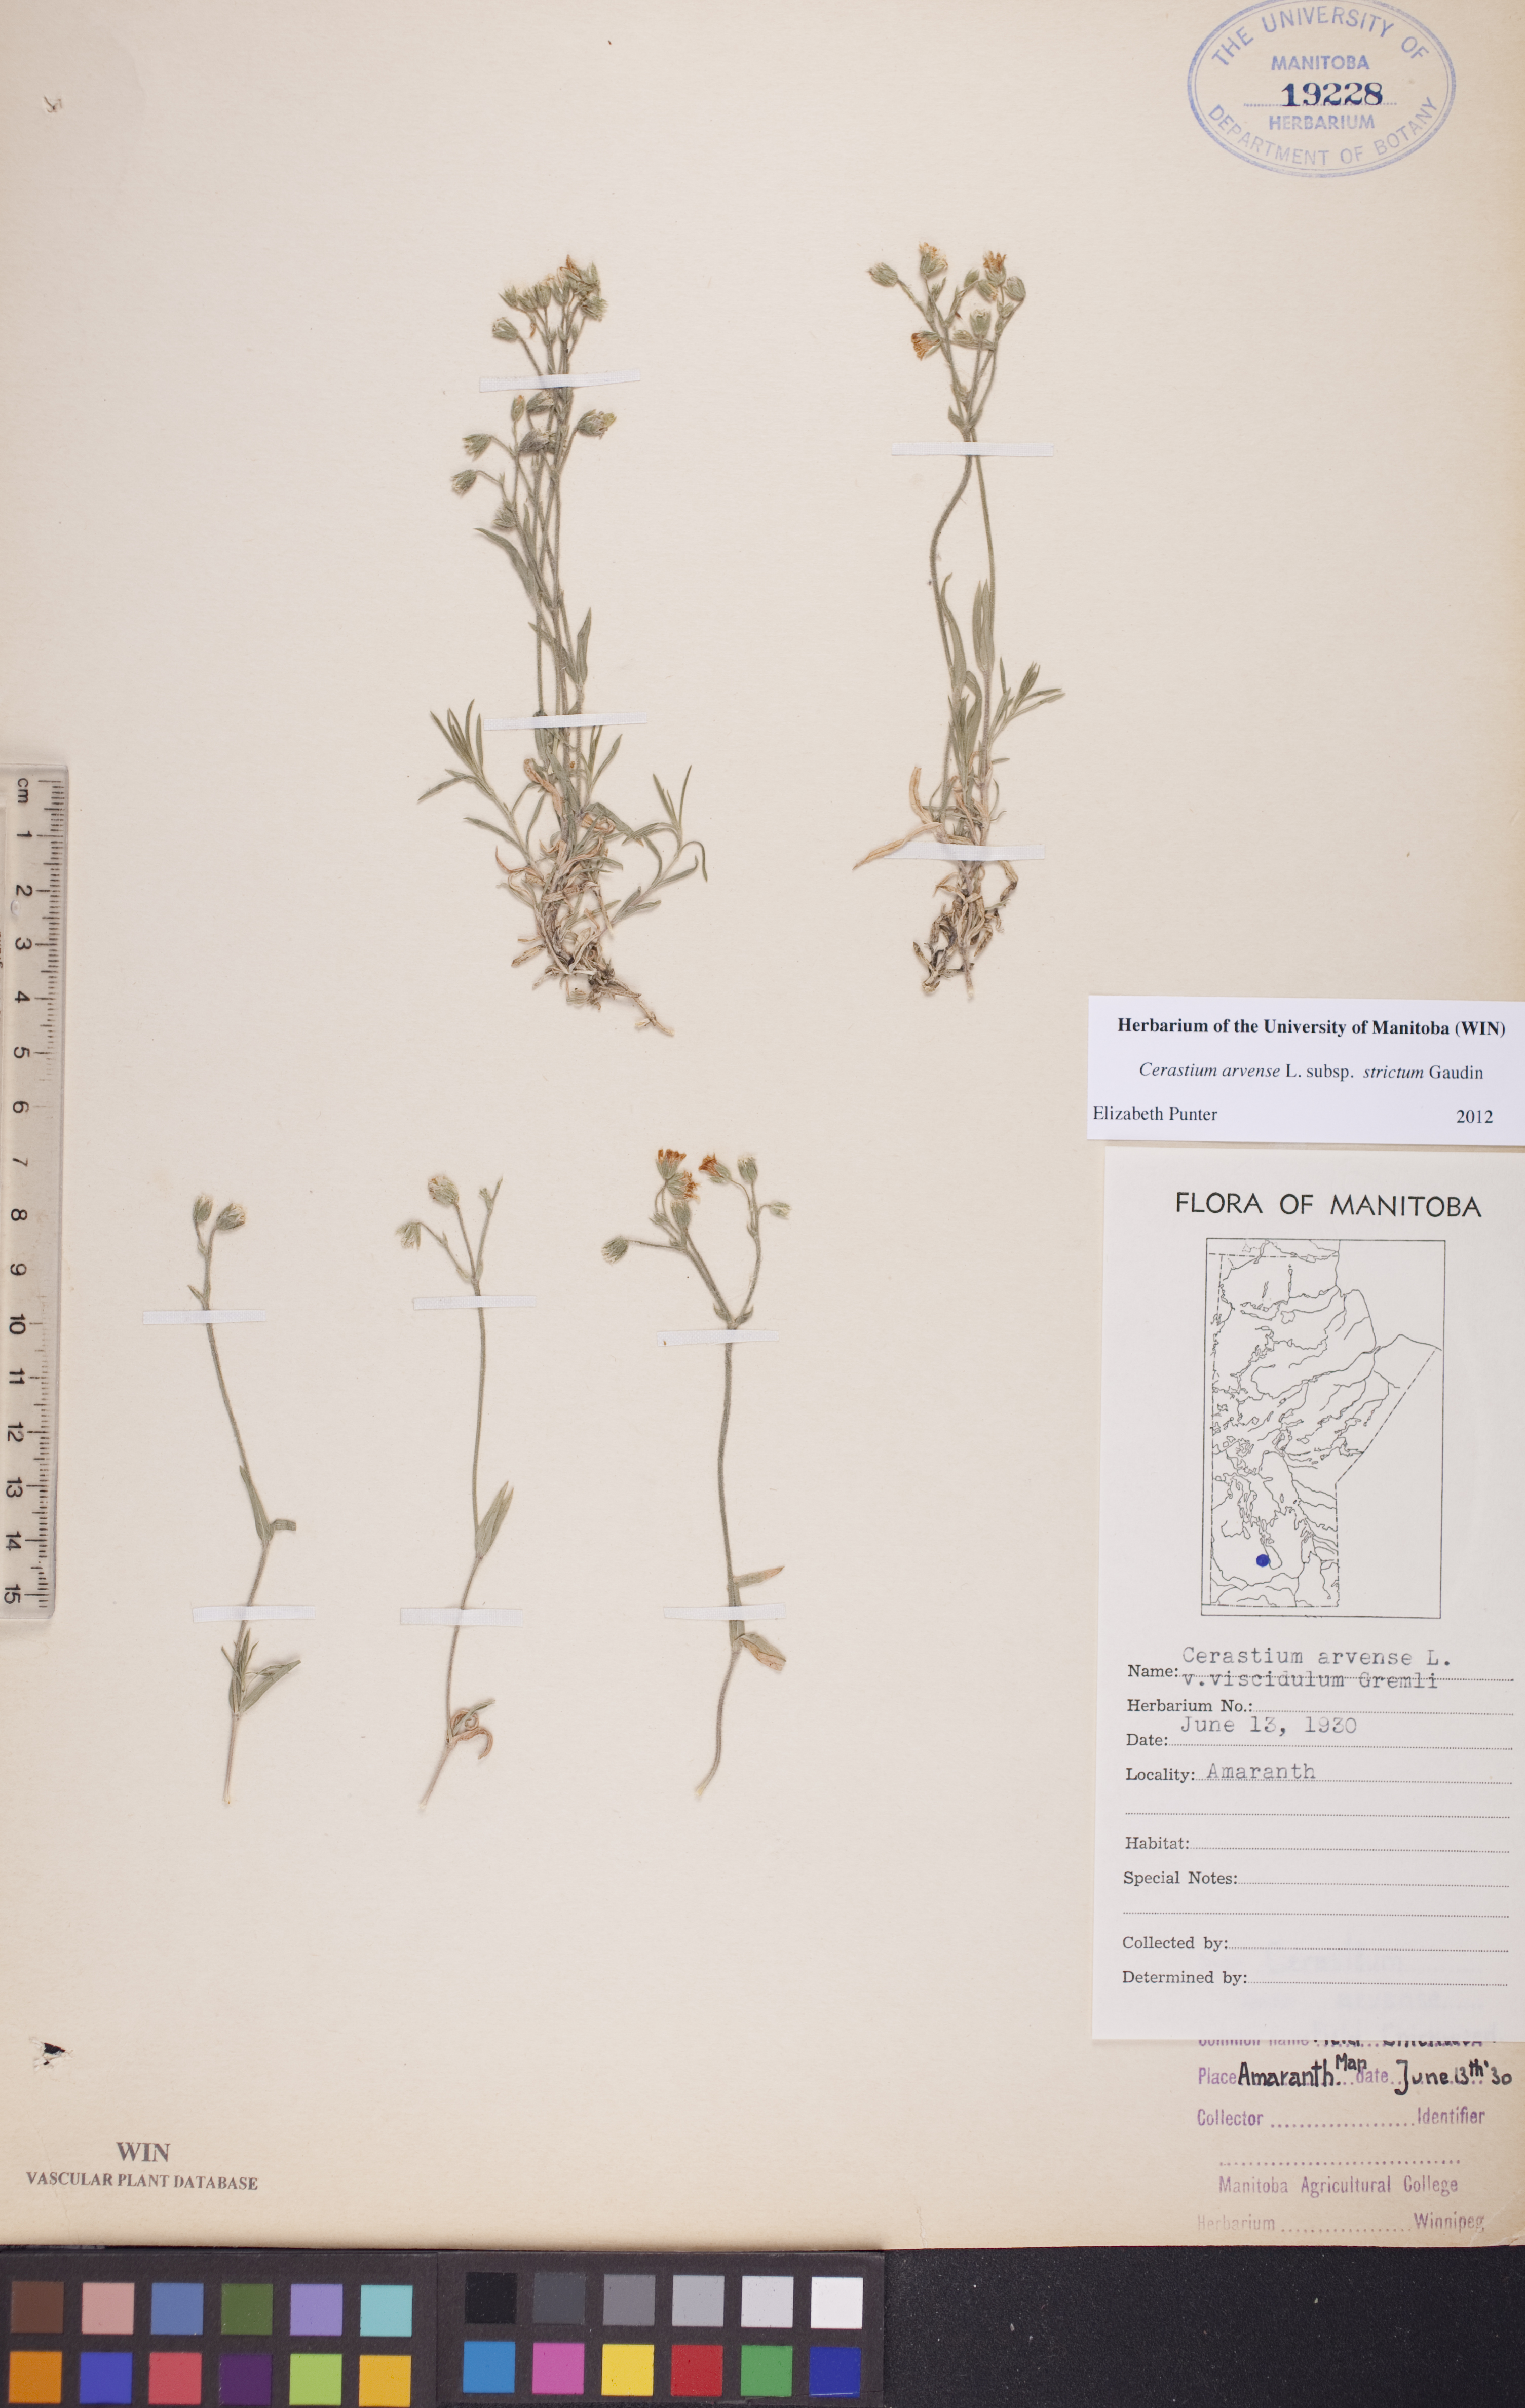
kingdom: Plantae
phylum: Tracheophyta
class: Magnoliopsida
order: Caryophyllales
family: Caryophyllaceae
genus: Cerastium
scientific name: Cerastium elongatum
